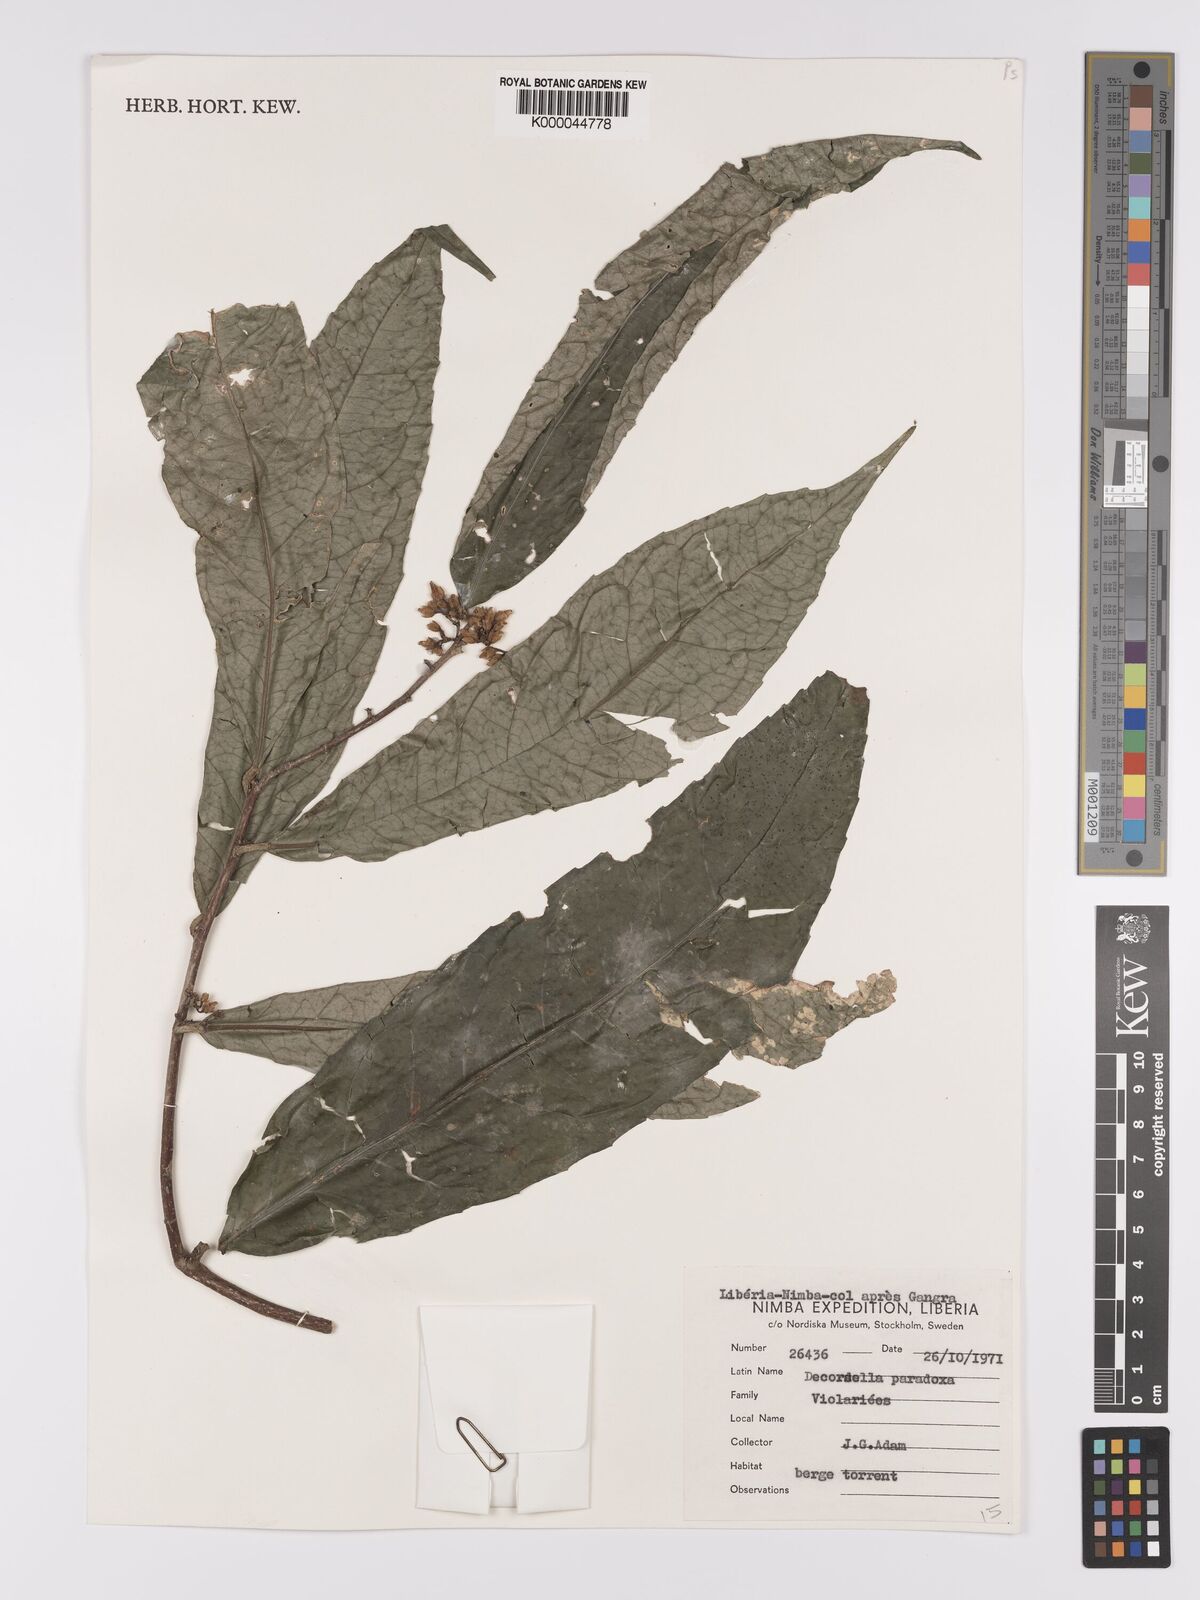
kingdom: Plantae
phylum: Tracheophyta
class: Magnoliopsida
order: Malpighiales
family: Violaceae
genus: Decorsella
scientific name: Decorsella paradoxa
